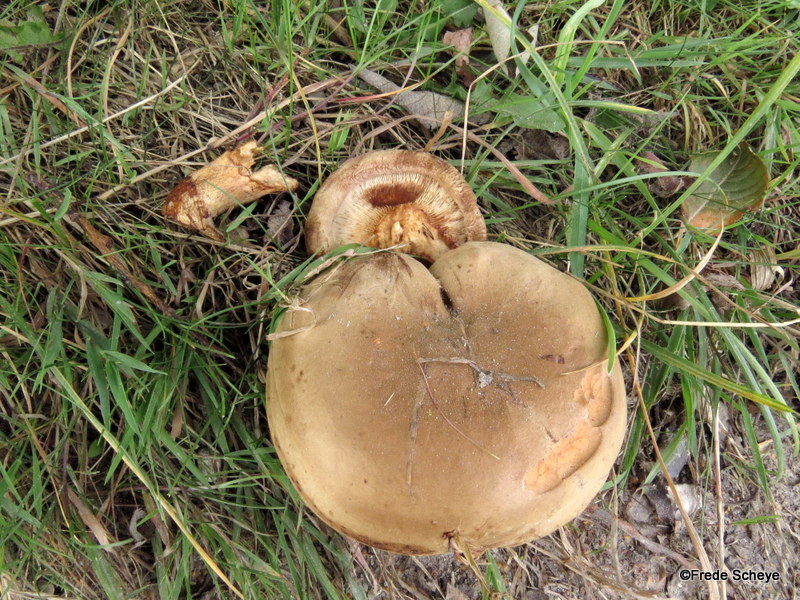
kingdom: Fungi
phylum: Basidiomycota
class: Agaricomycetes
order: Boletales
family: Paxillaceae
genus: Paxillus
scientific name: Paxillus involutus
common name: almindelig netbladhat
